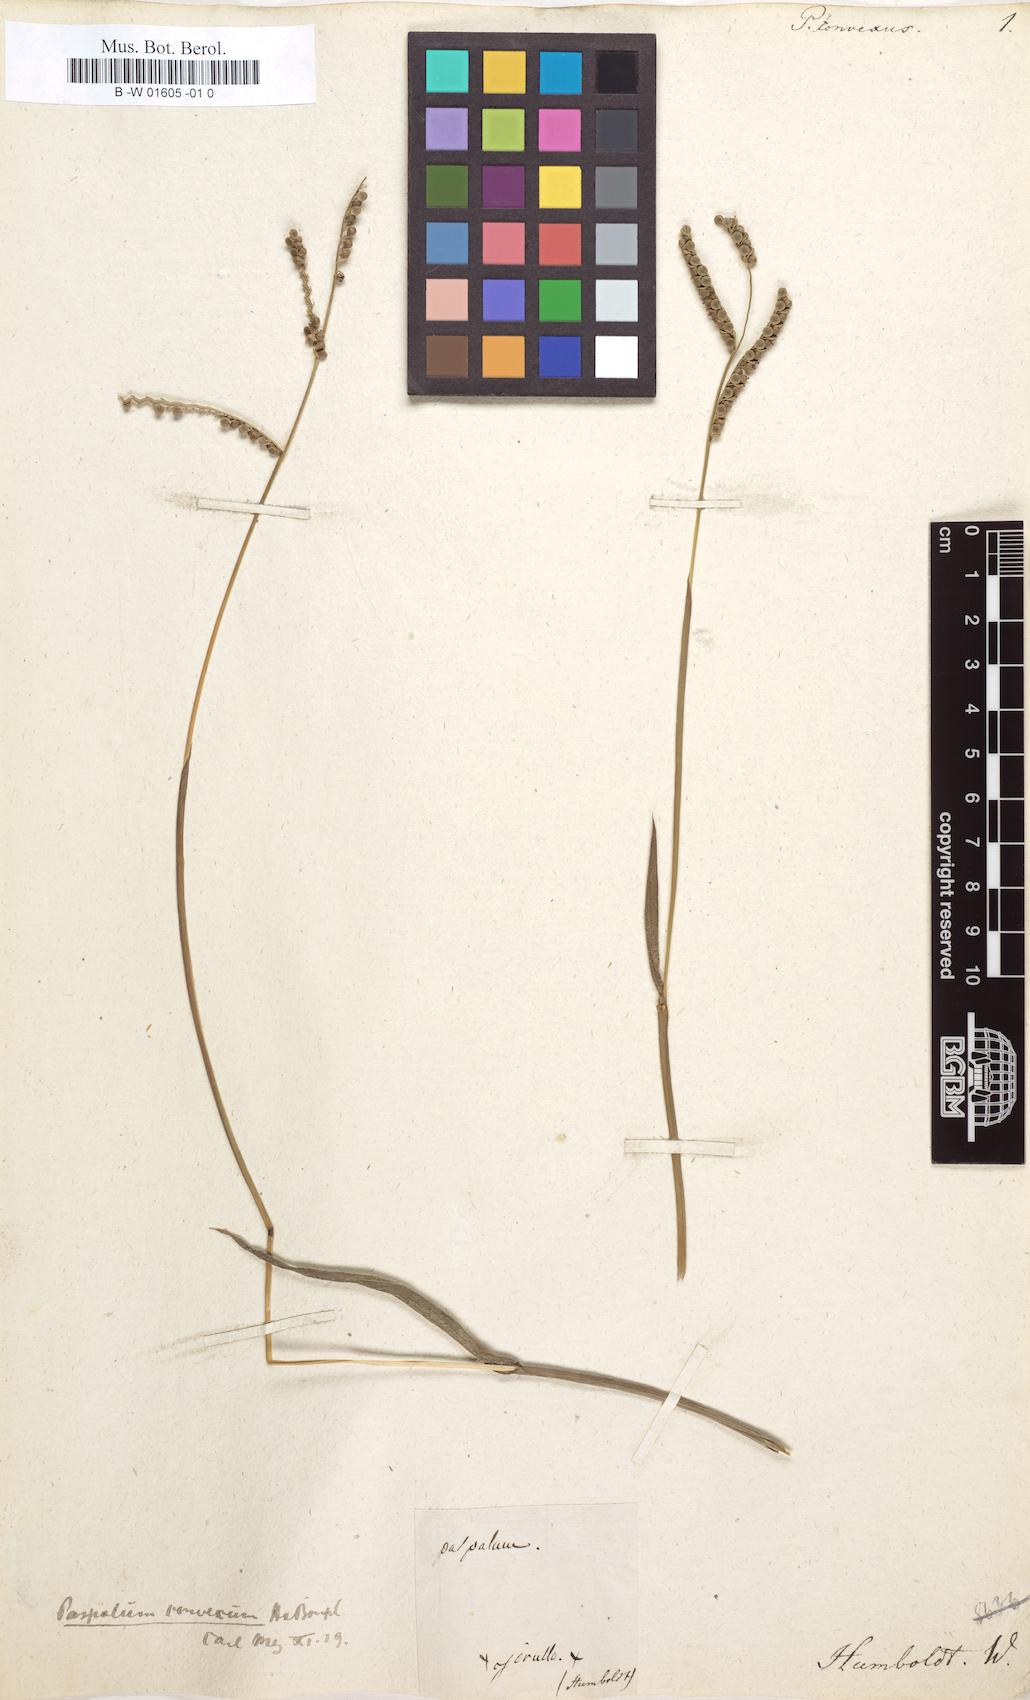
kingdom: Plantae
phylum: Tracheophyta
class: Liliopsida
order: Poales
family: Poaceae
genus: Paspalum
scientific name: Paspalum convexum
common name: Latin american crowngrass
